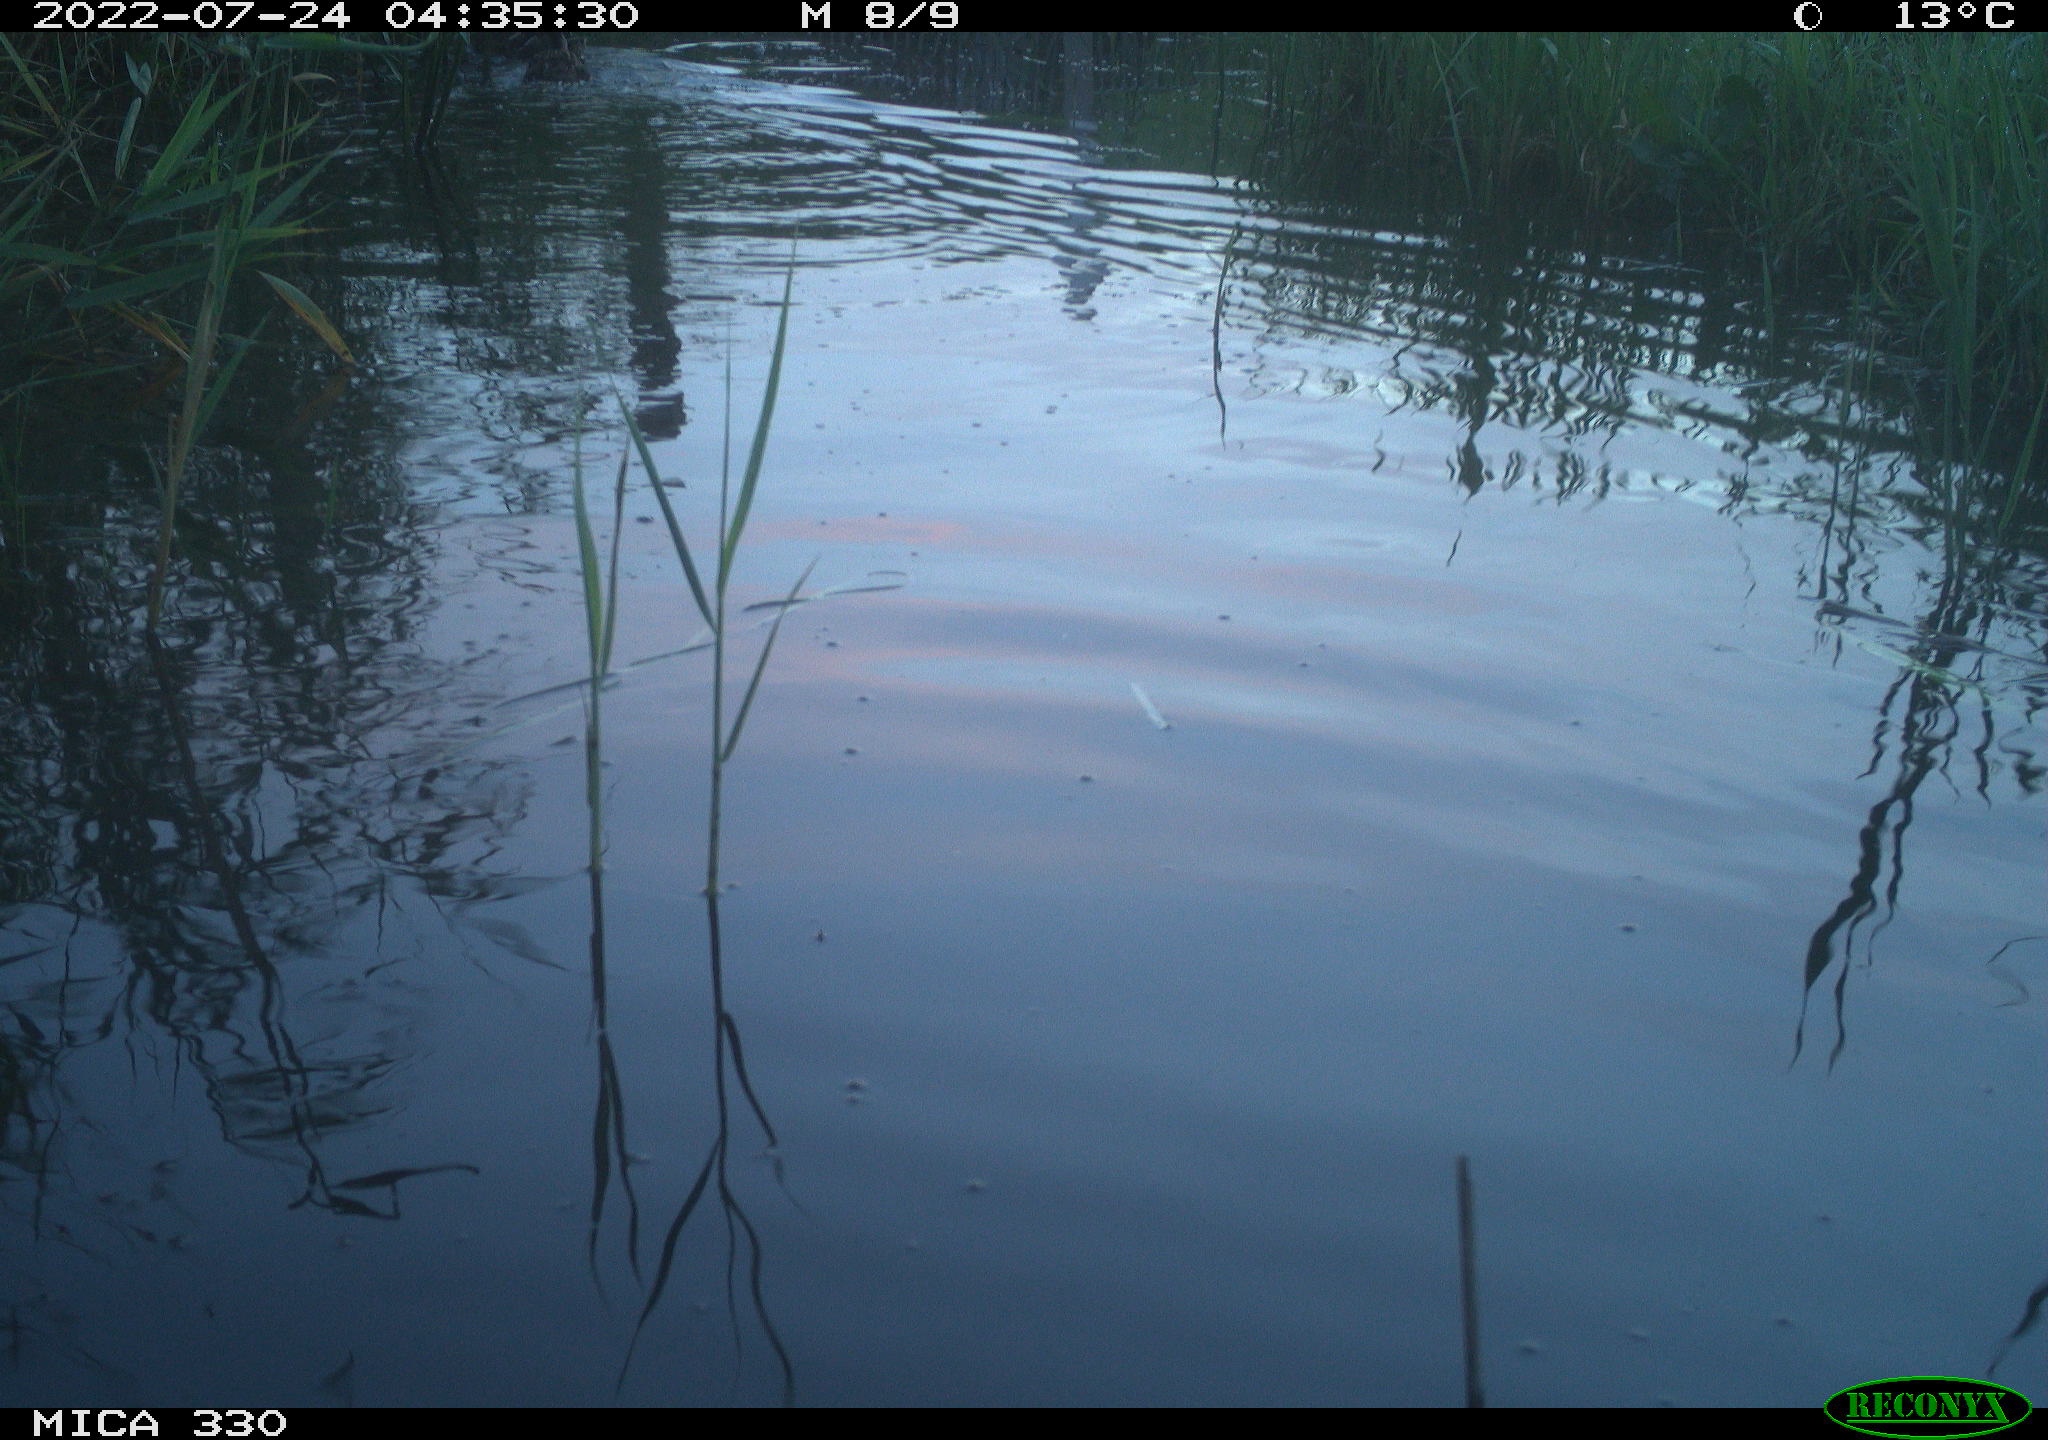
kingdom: Animalia
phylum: Chordata
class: Aves
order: Anseriformes
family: Anatidae
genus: Anas
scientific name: Anas platyrhynchos
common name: Mallard
